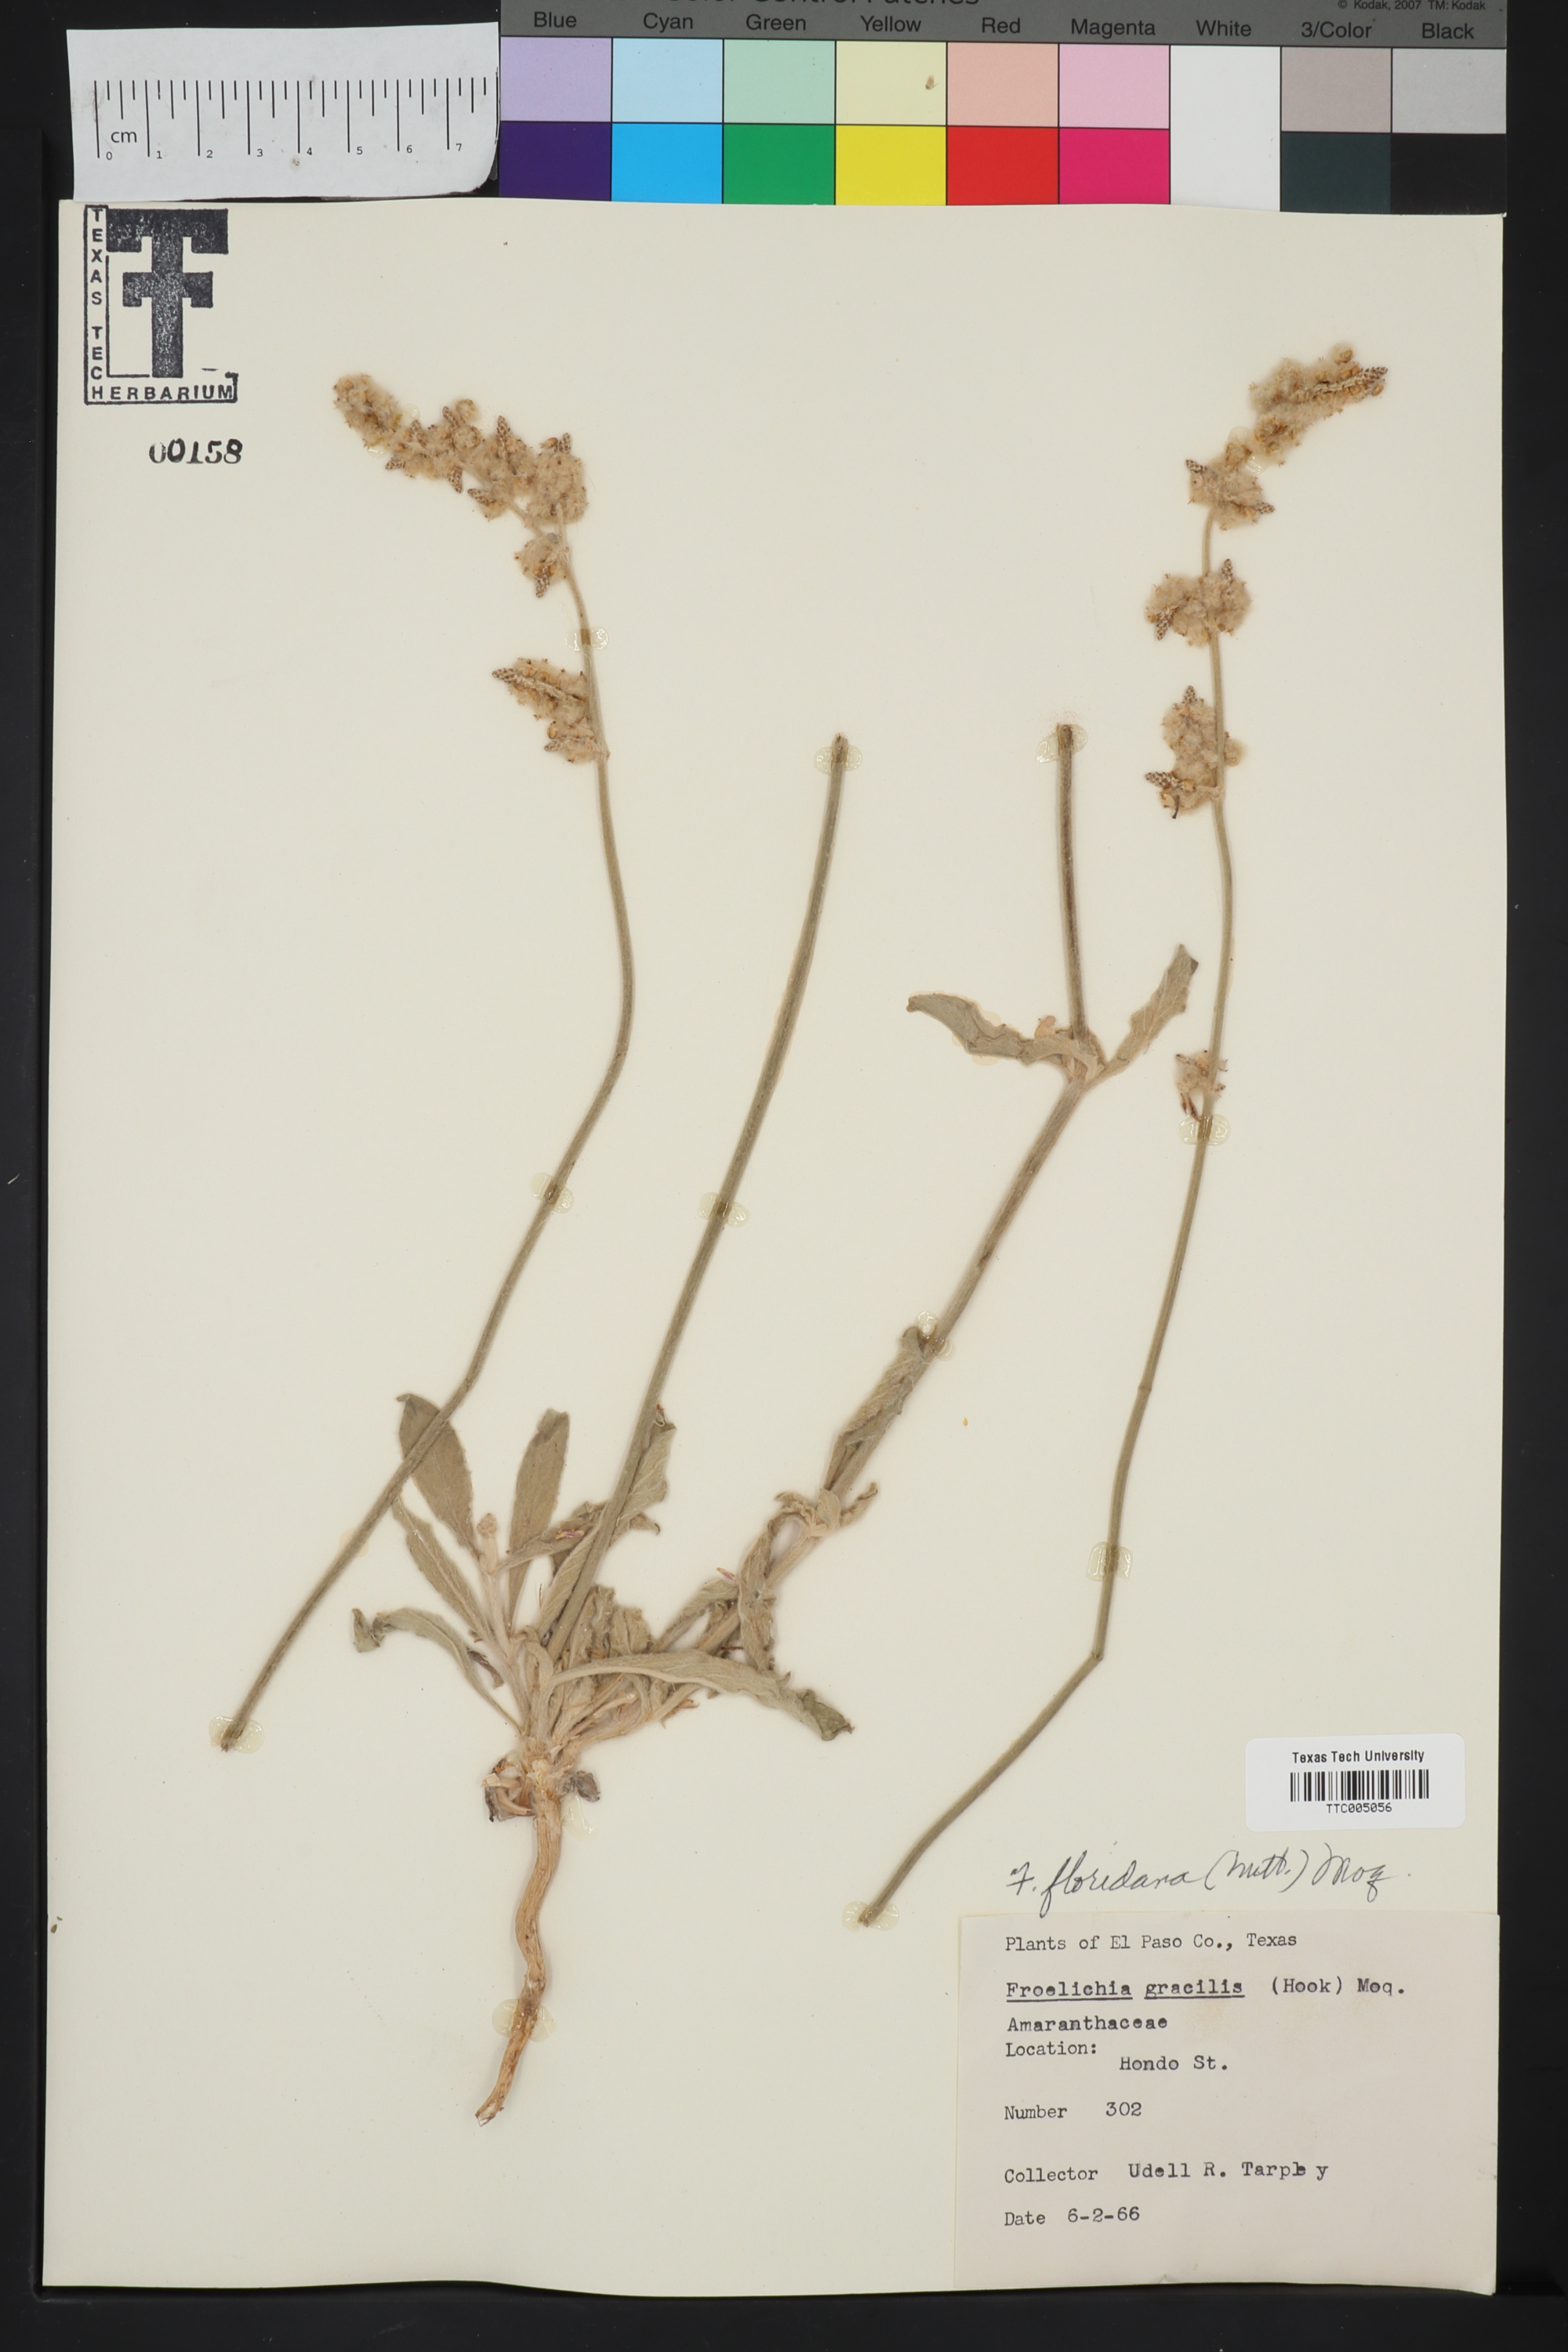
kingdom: Plantae
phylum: Tracheophyta
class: Magnoliopsida
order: Caryophyllales
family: Amaranthaceae
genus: Froelichia
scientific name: Froelichia gracilis
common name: Slender cottonweed
